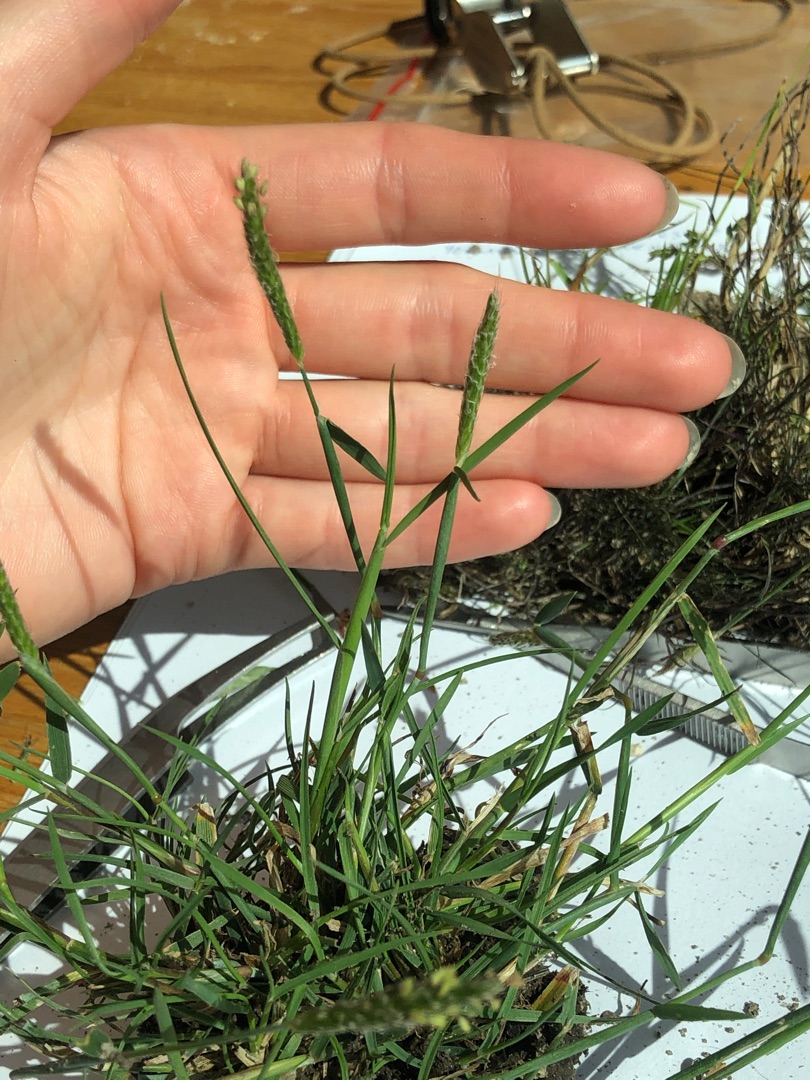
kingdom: Plantae
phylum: Tracheophyta
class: Liliopsida
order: Poales
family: Poaceae
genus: Alopecurus
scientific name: Alopecurus geniculatus
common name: Knæbøjet rævehale
